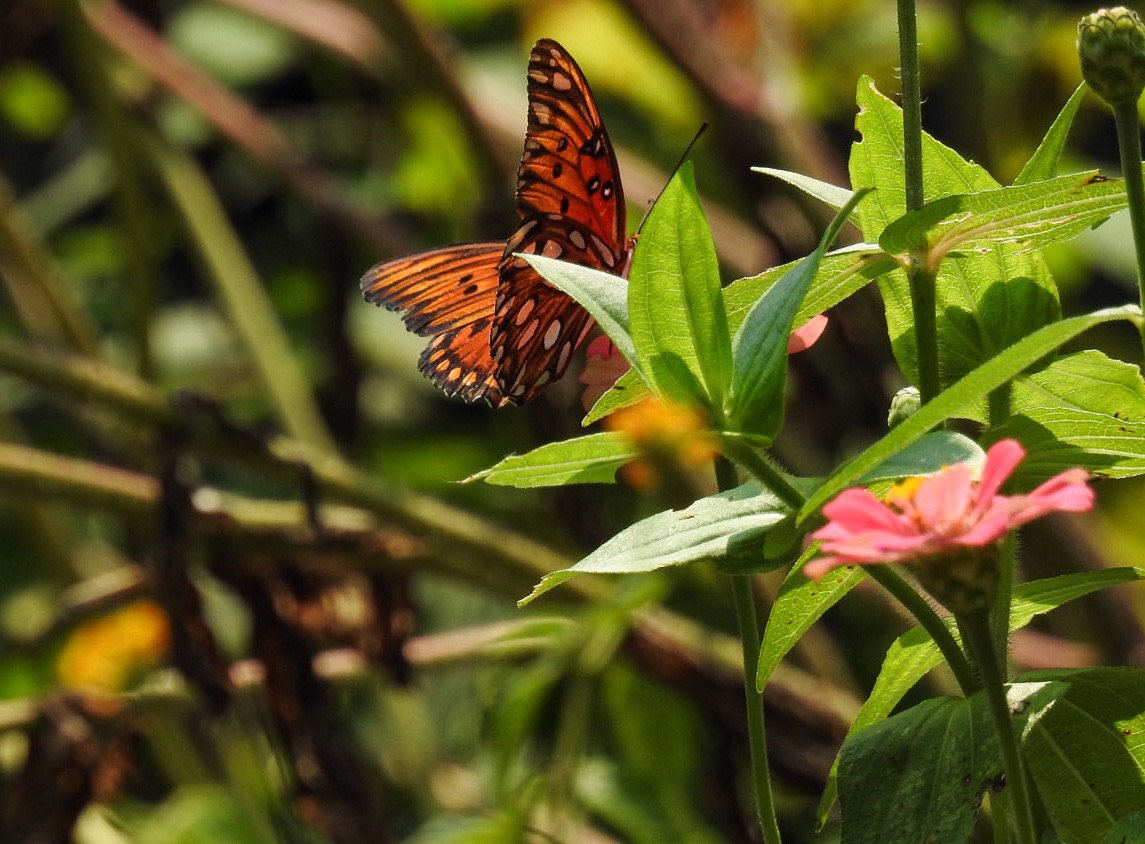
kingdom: Animalia
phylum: Arthropoda
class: Insecta
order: Lepidoptera
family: Nymphalidae
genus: Dione
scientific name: Dione vanillae
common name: Gulf Fritillary
